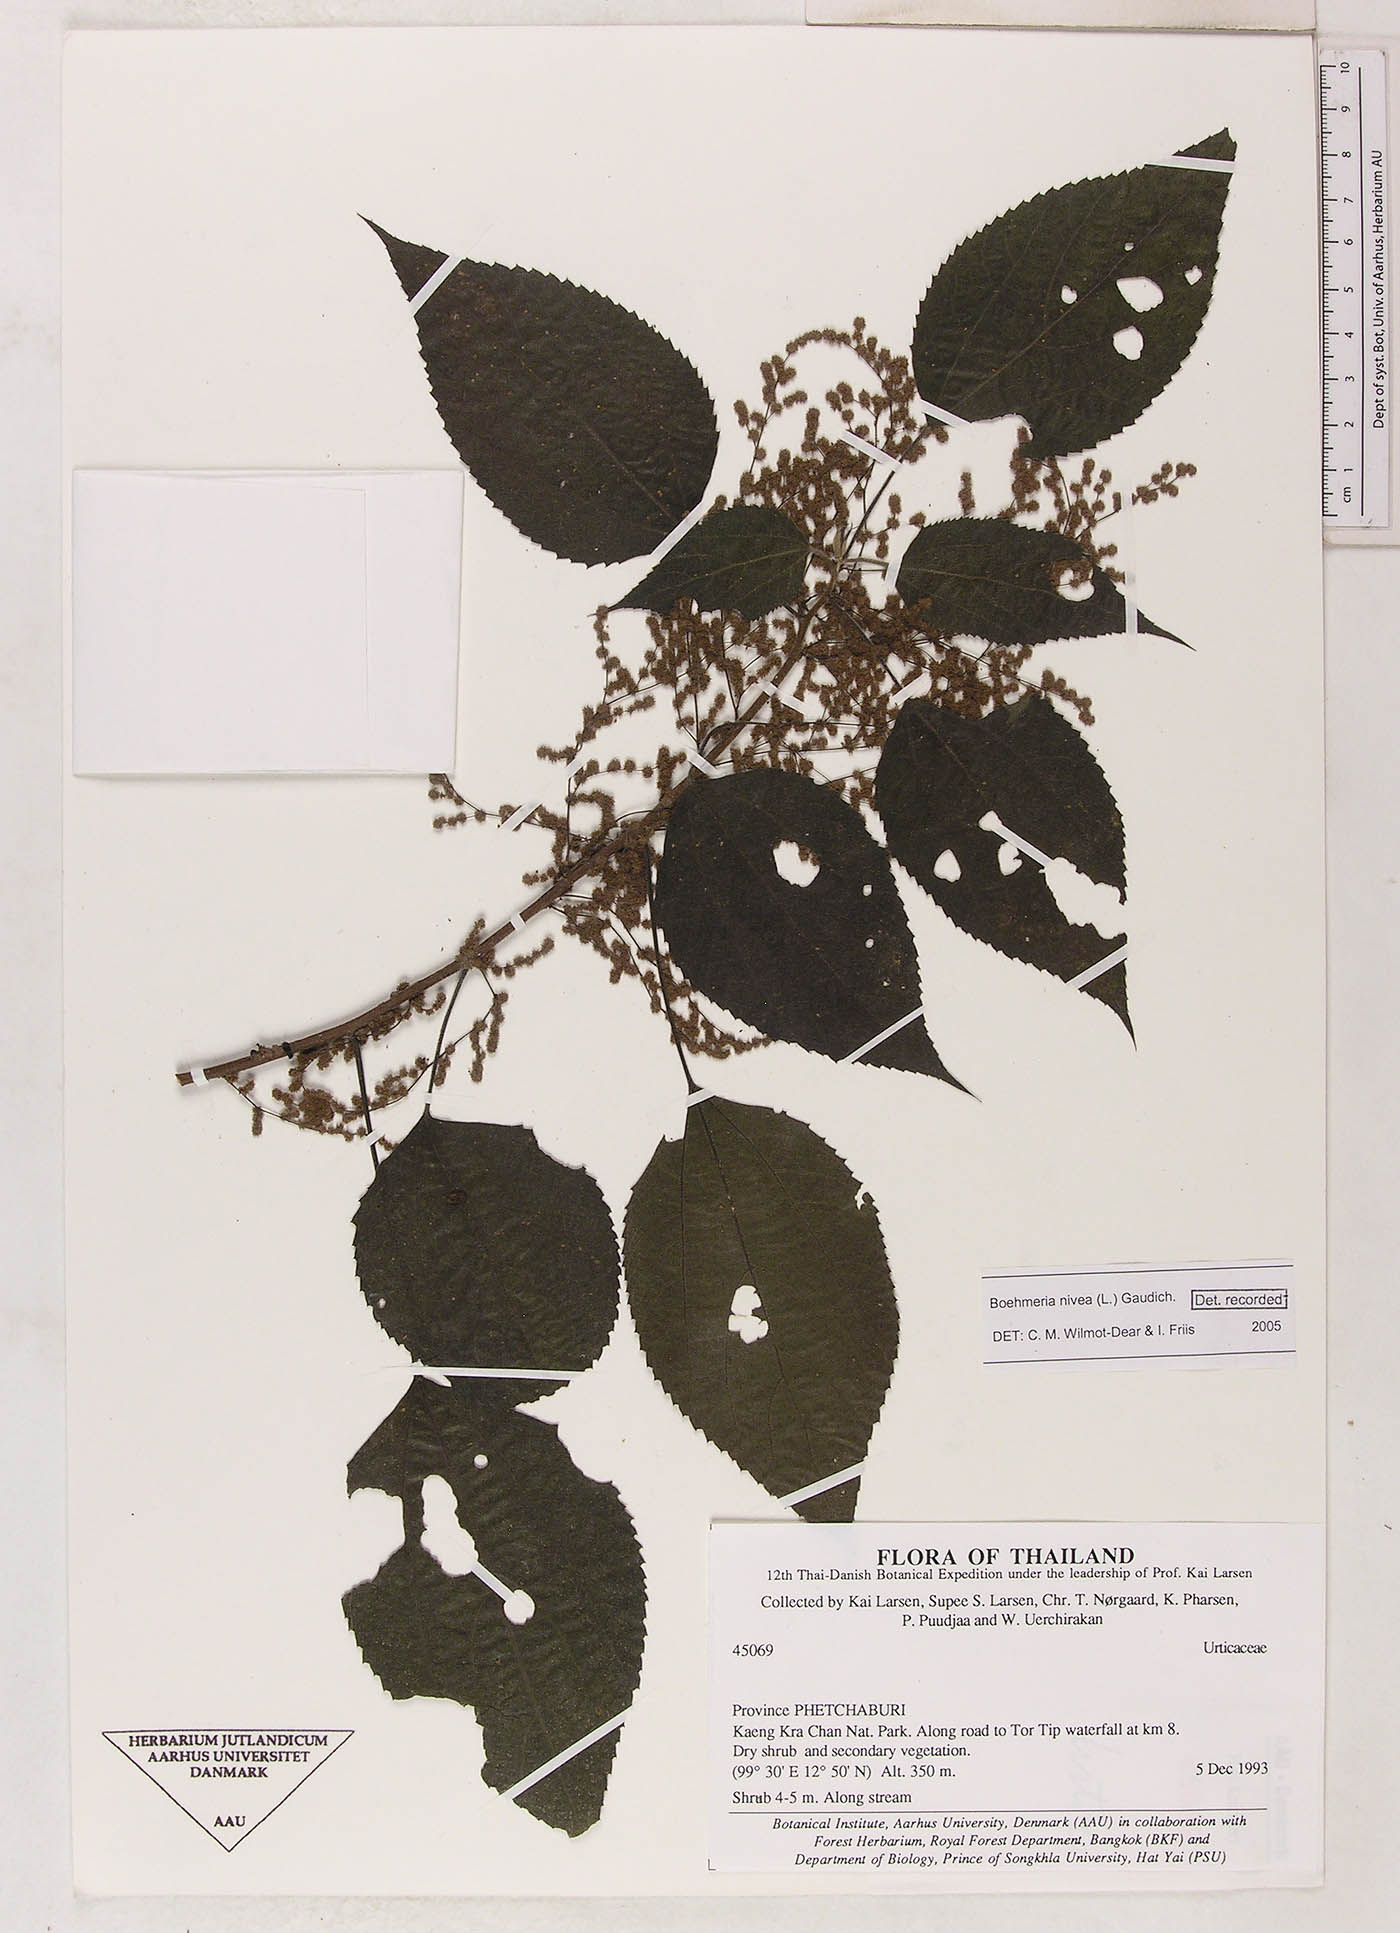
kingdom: Plantae
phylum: Tracheophyta
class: Magnoliopsida
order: Rosales
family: Urticaceae
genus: Boehmeria
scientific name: Boehmeria nivea
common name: Ramie chinese grass
